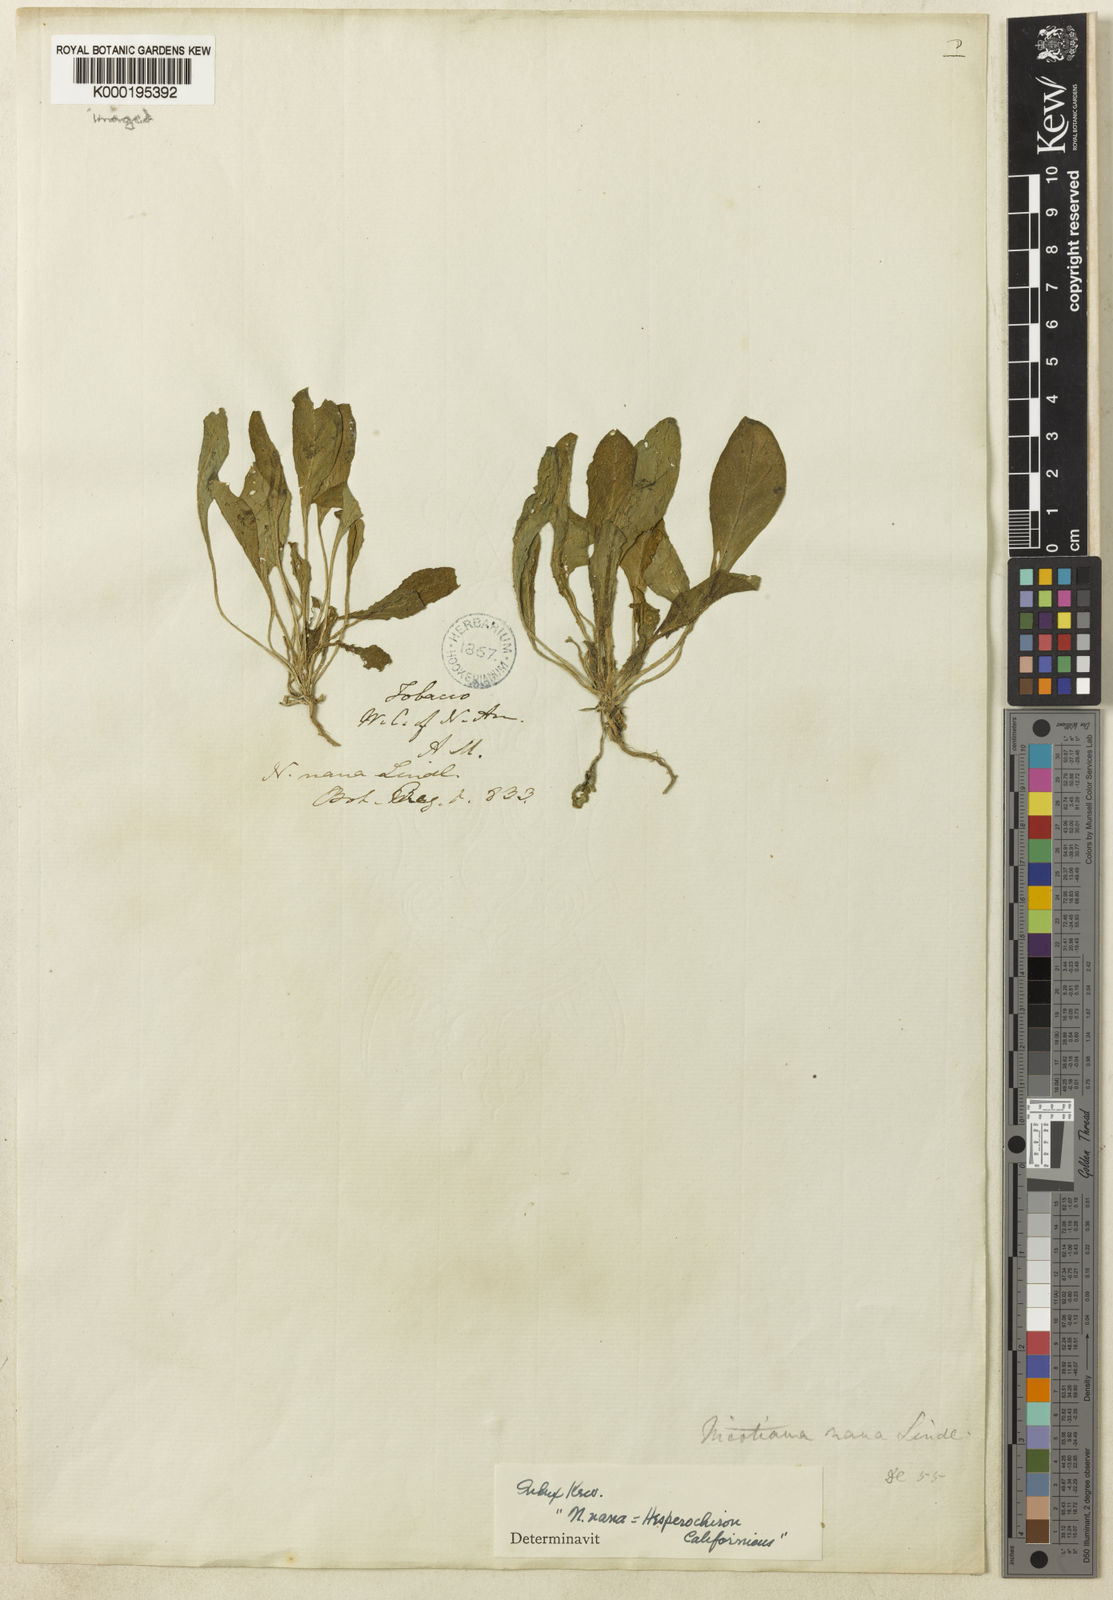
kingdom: Plantae
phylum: Tracheophyta
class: Magnoliopsida
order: Boraginales
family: Hydrophyllaceae
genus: Hesperochiron
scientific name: Hesperochiron californicus
